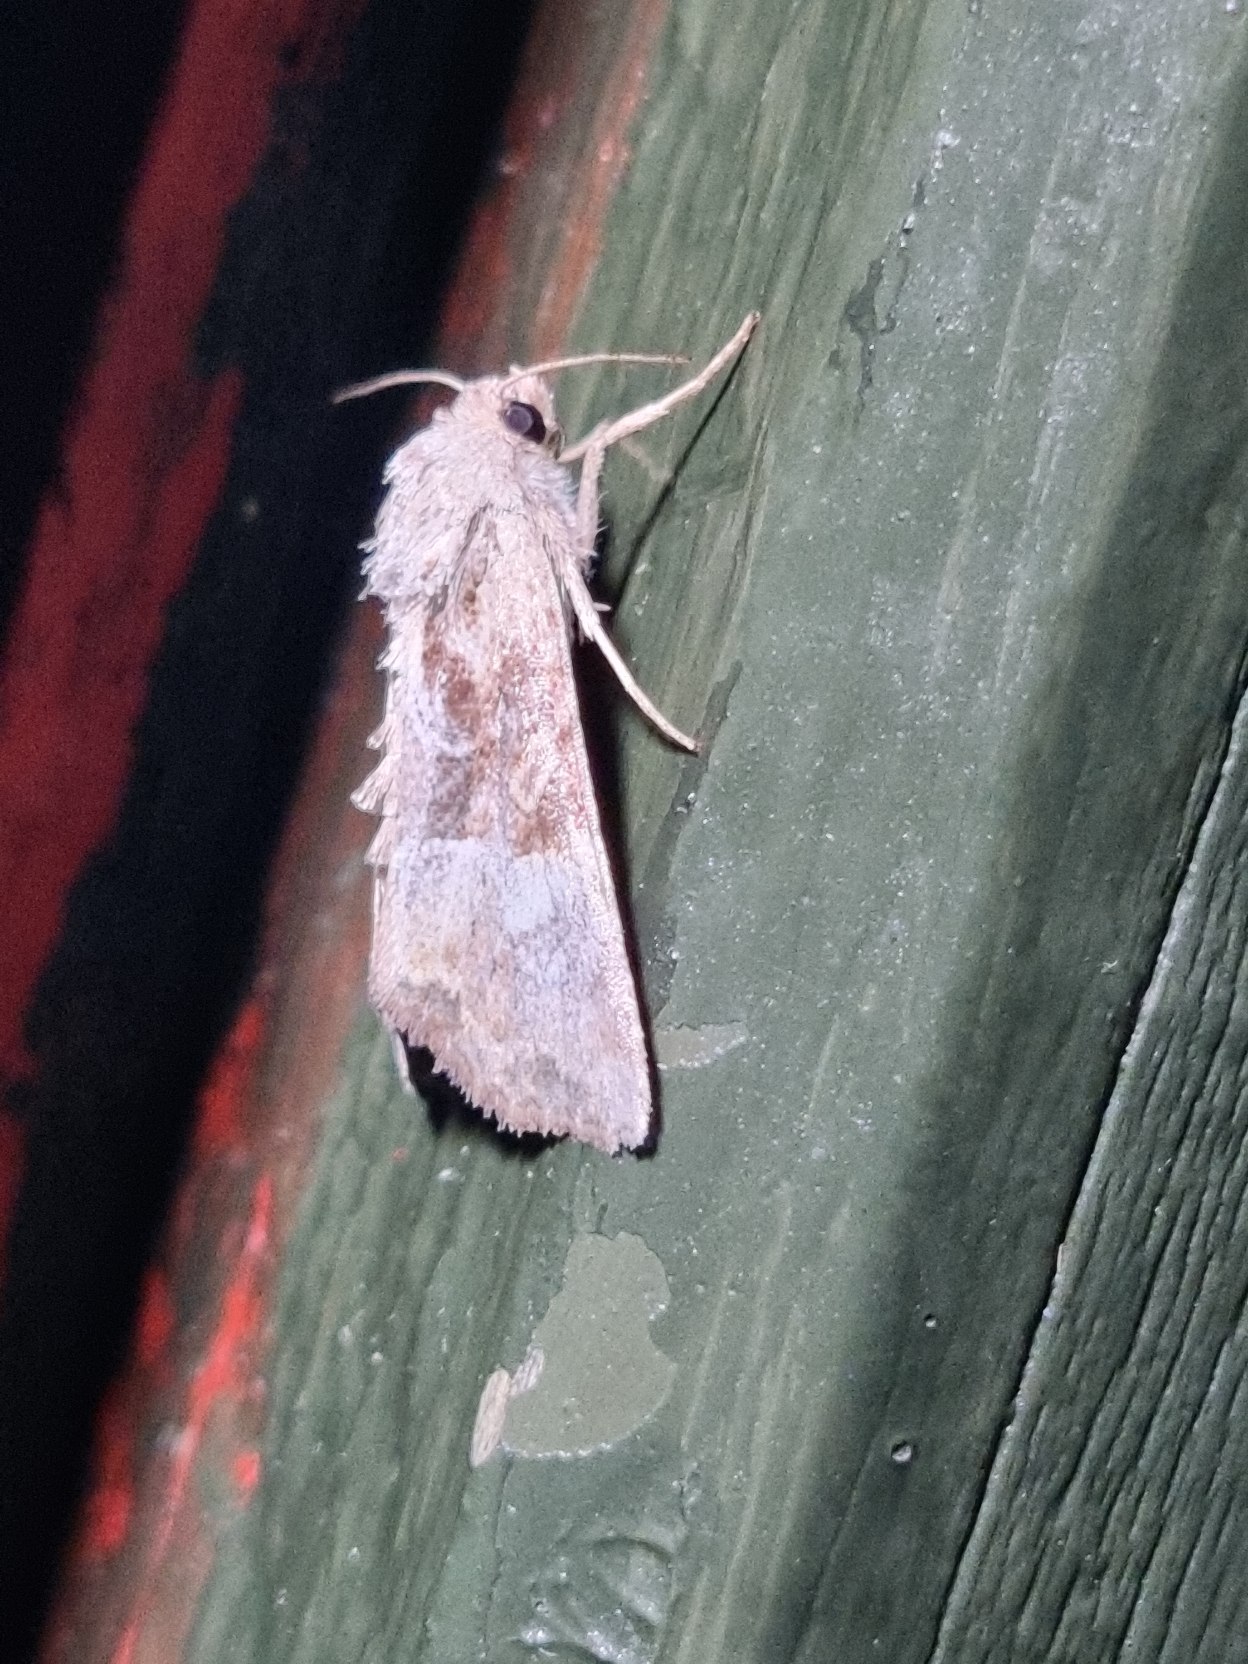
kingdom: Animalia
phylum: Arthropoda
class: Insecta
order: Lepidoptera
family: Noctuidae
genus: Mesoligia
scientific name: Mesoligia furuncula
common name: Lille tyv
